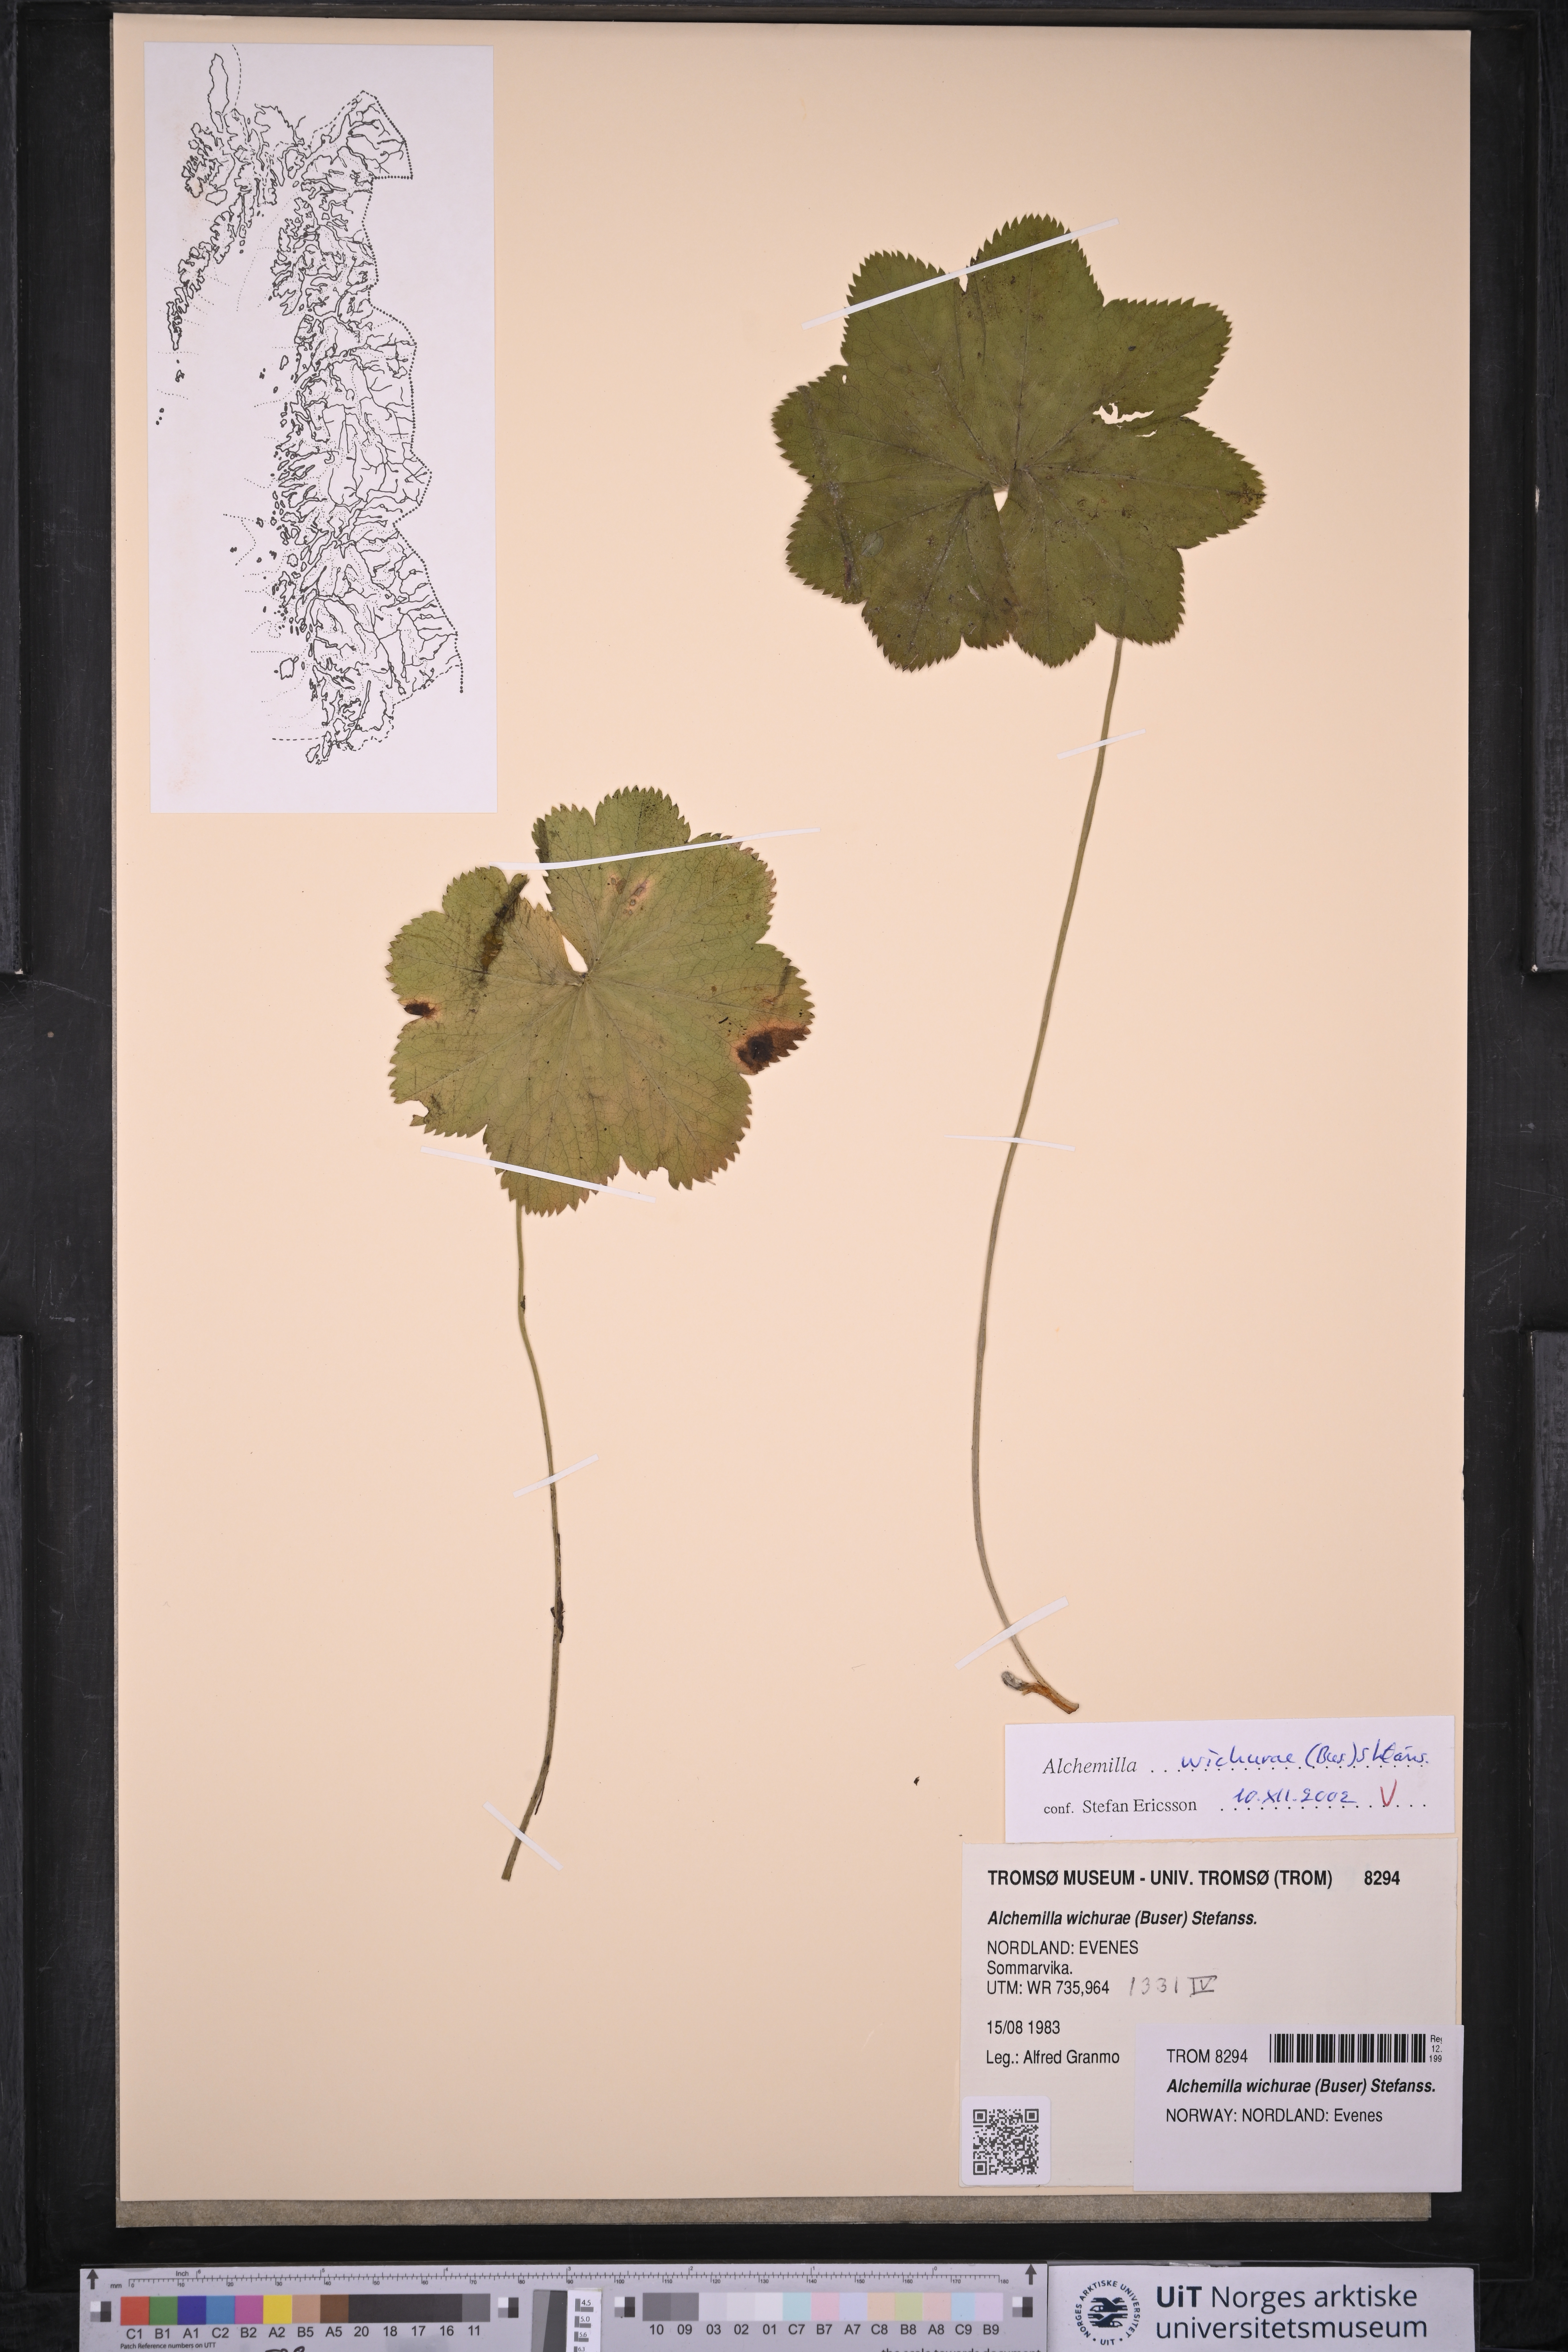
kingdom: Plantae
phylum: Tracheophyta
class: Magnoliopsida
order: Rosales
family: Rosaceae
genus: Alchemilla
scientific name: Alchemilla wichurae
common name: Rock lady's mantle
